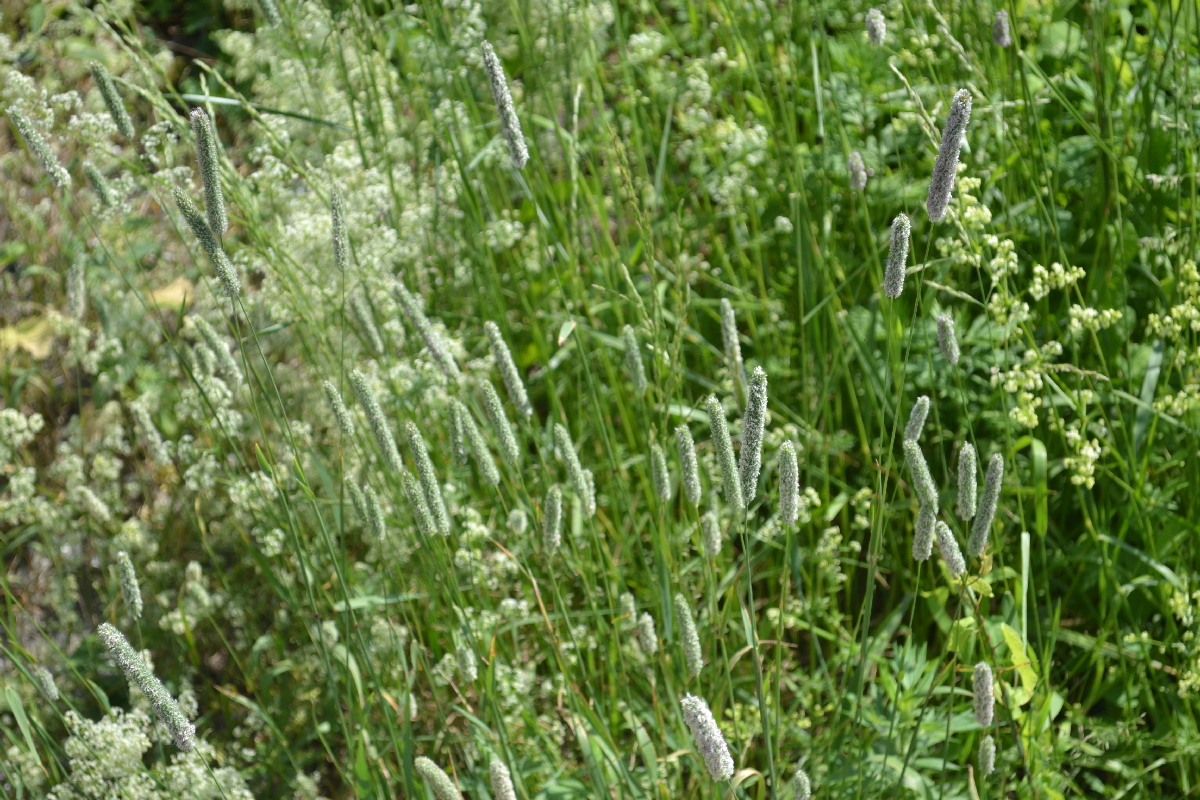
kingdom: Plantae
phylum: Tracheophyta
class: Liliopsida
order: Poales
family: Poaceae
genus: Alopecurus
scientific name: Alopecurus pratensis
